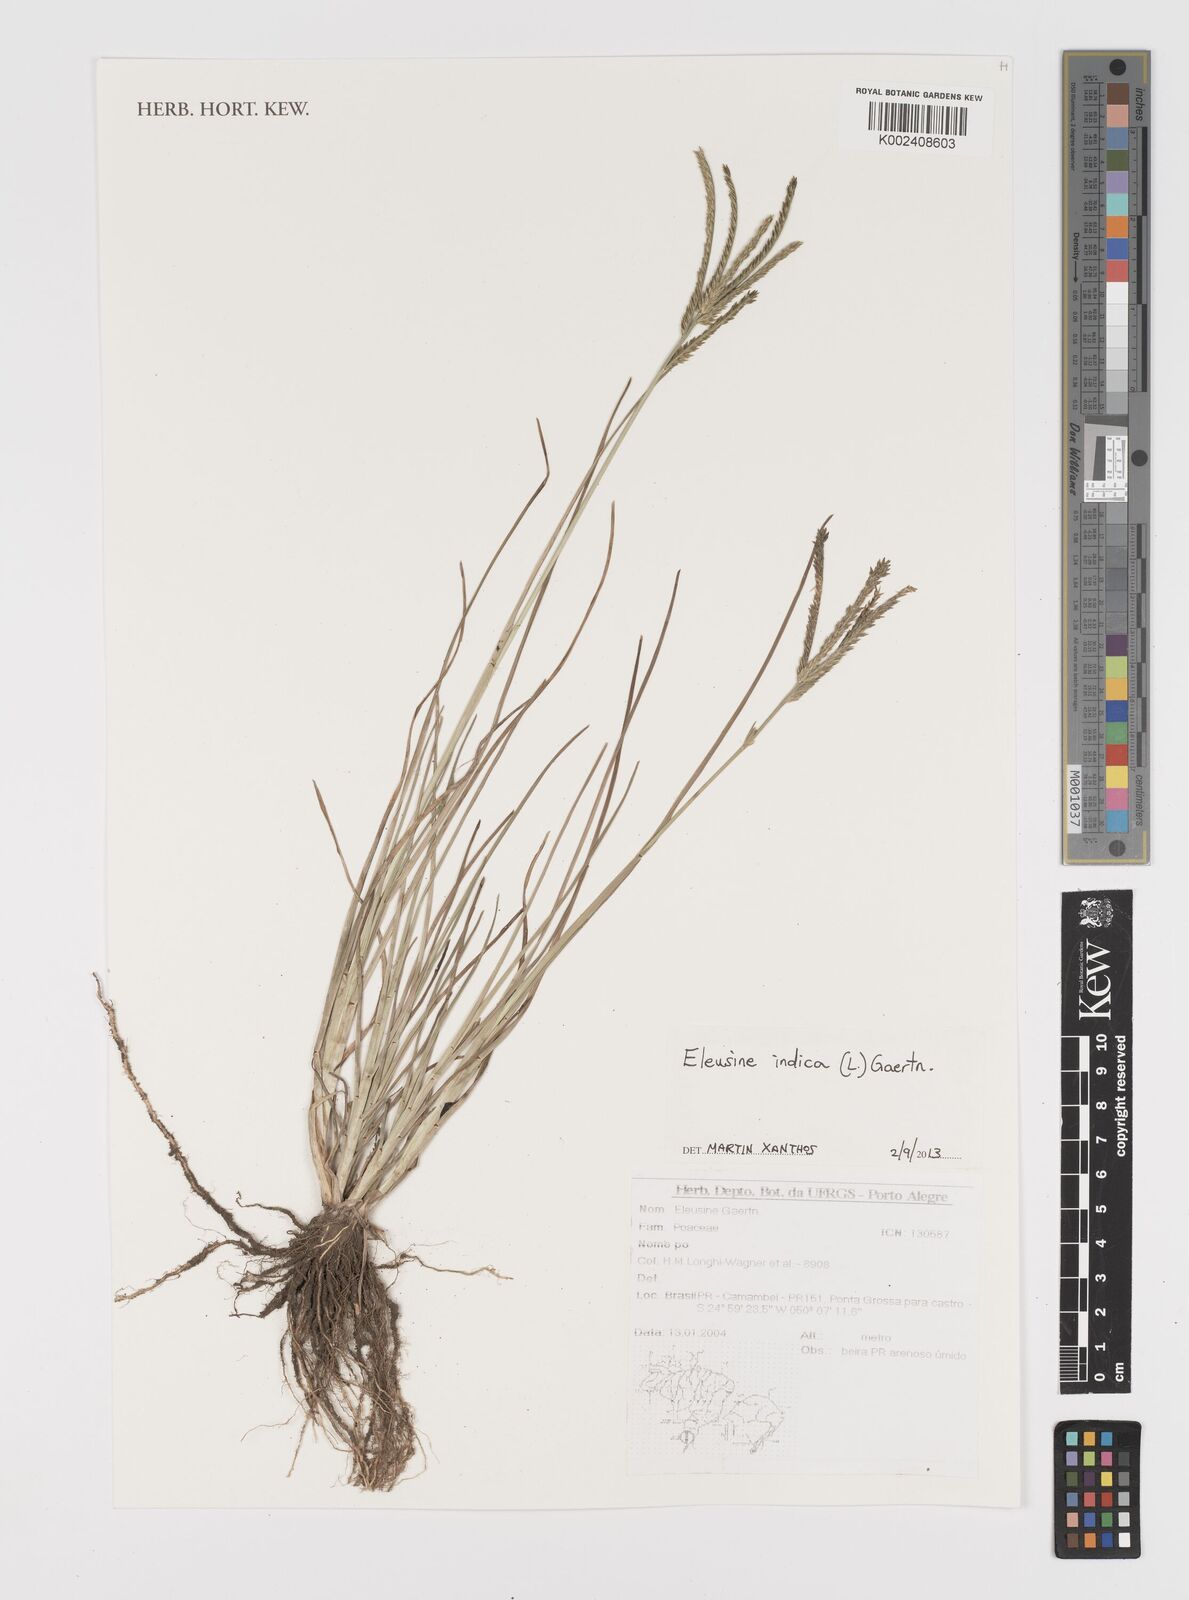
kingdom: Plantae
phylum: Tracheophyta
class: Liliopsida
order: Poales
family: Poaceae
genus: Eleusine
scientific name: Eleusine indica
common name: Yard-grass
